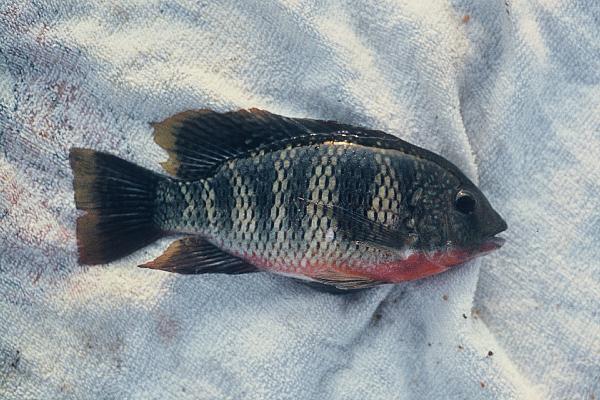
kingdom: Animalia
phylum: Chordata
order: Perciformes
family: Cichlidae
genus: Coptodon
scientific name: Coptodon rendalli
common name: Redbreast tilapia
